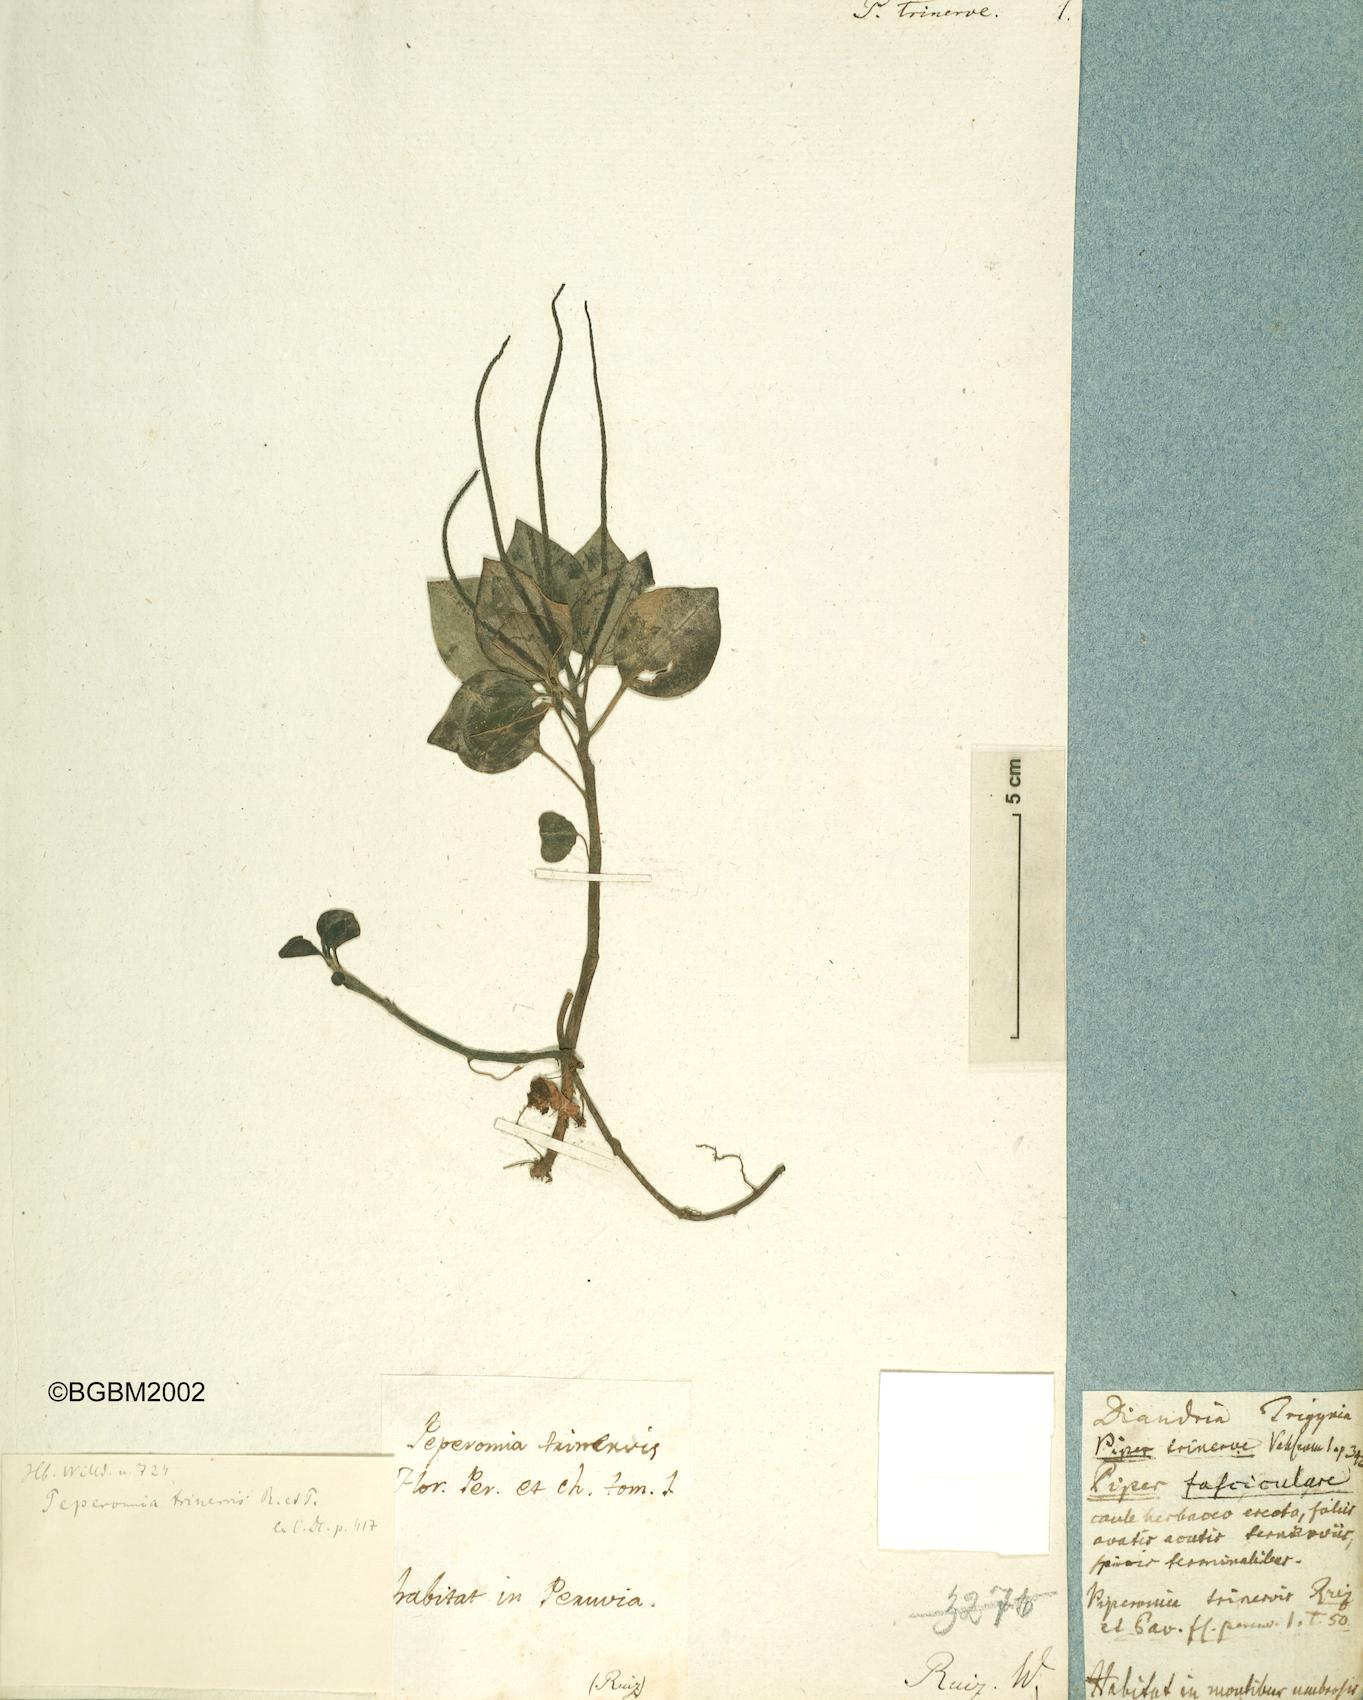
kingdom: Plantae
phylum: Tracheophyta
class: Magnoliopsida
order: Piperales
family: Piperaceae
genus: Peperomia
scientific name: Peperomia trinervis
